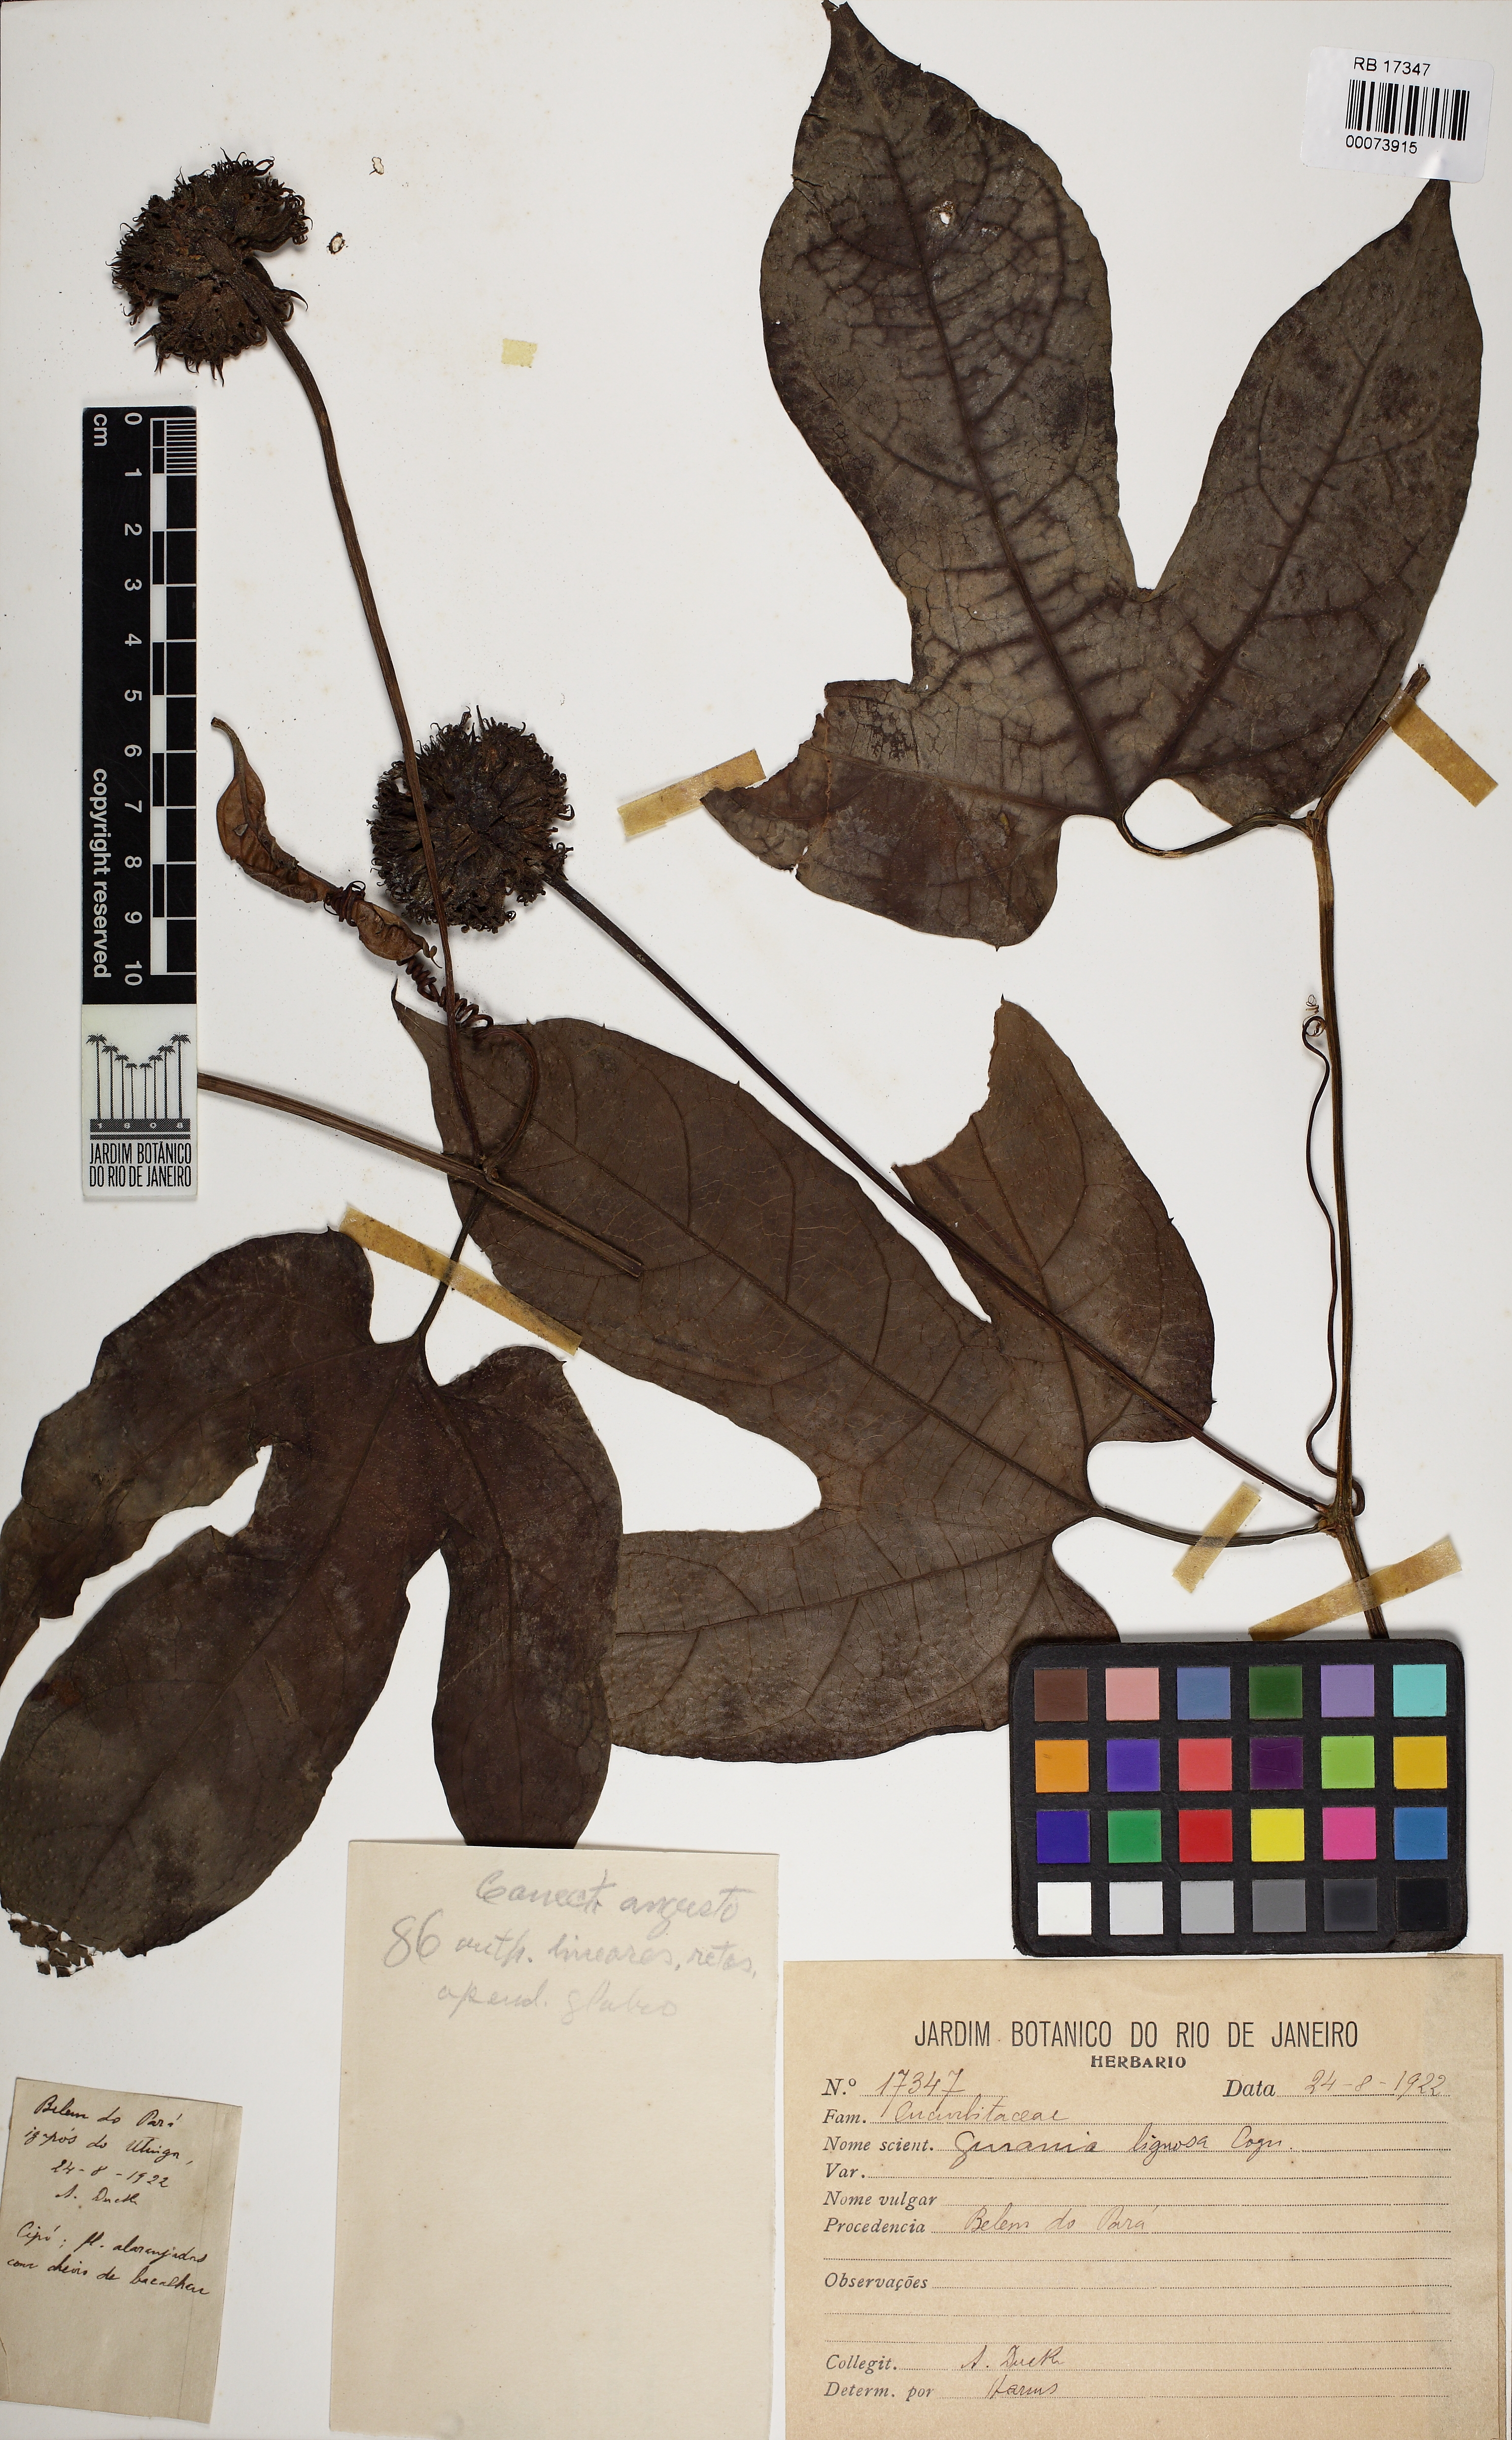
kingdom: Plantae
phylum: Tracheophyta
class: Magnoliopsida
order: Cucurbitales
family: Cucurbitaceae
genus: Gurania
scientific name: Gurania sinuata
